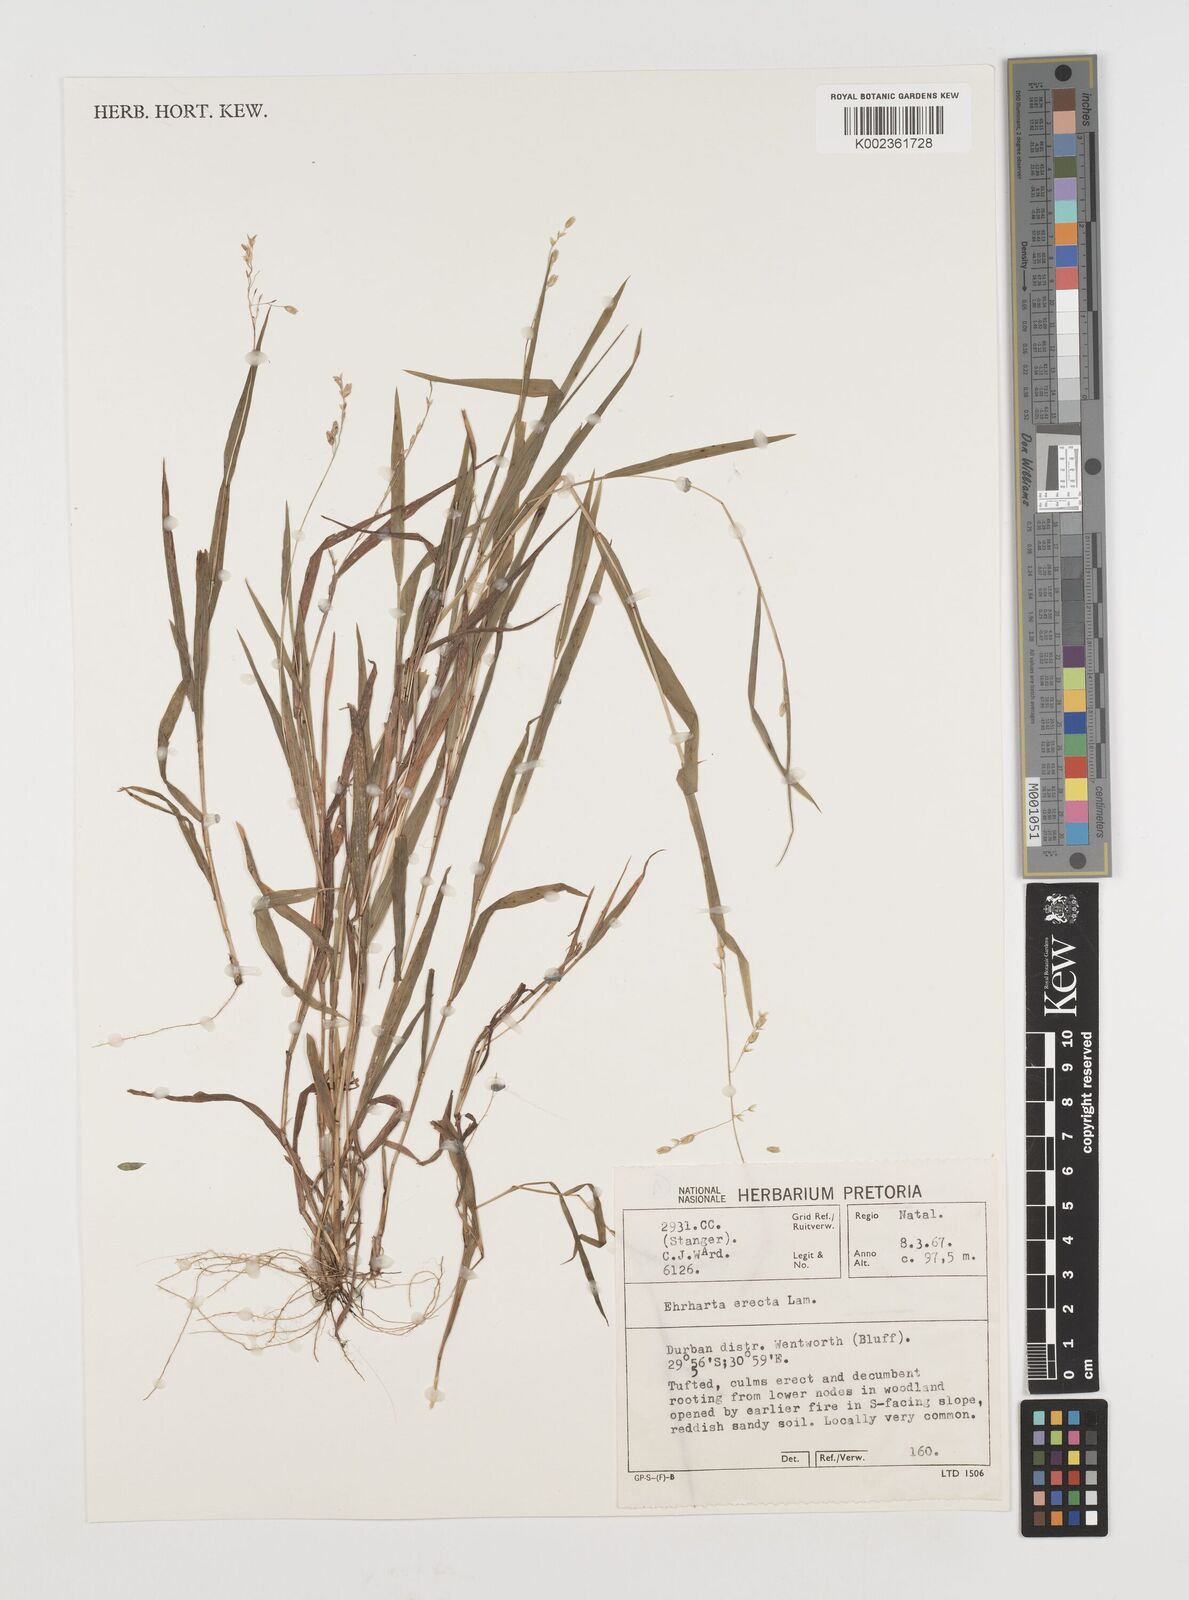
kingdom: Plantae
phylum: Tracheophyta
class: Liliopsida
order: Poales
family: Poaceae
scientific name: Poaceae
